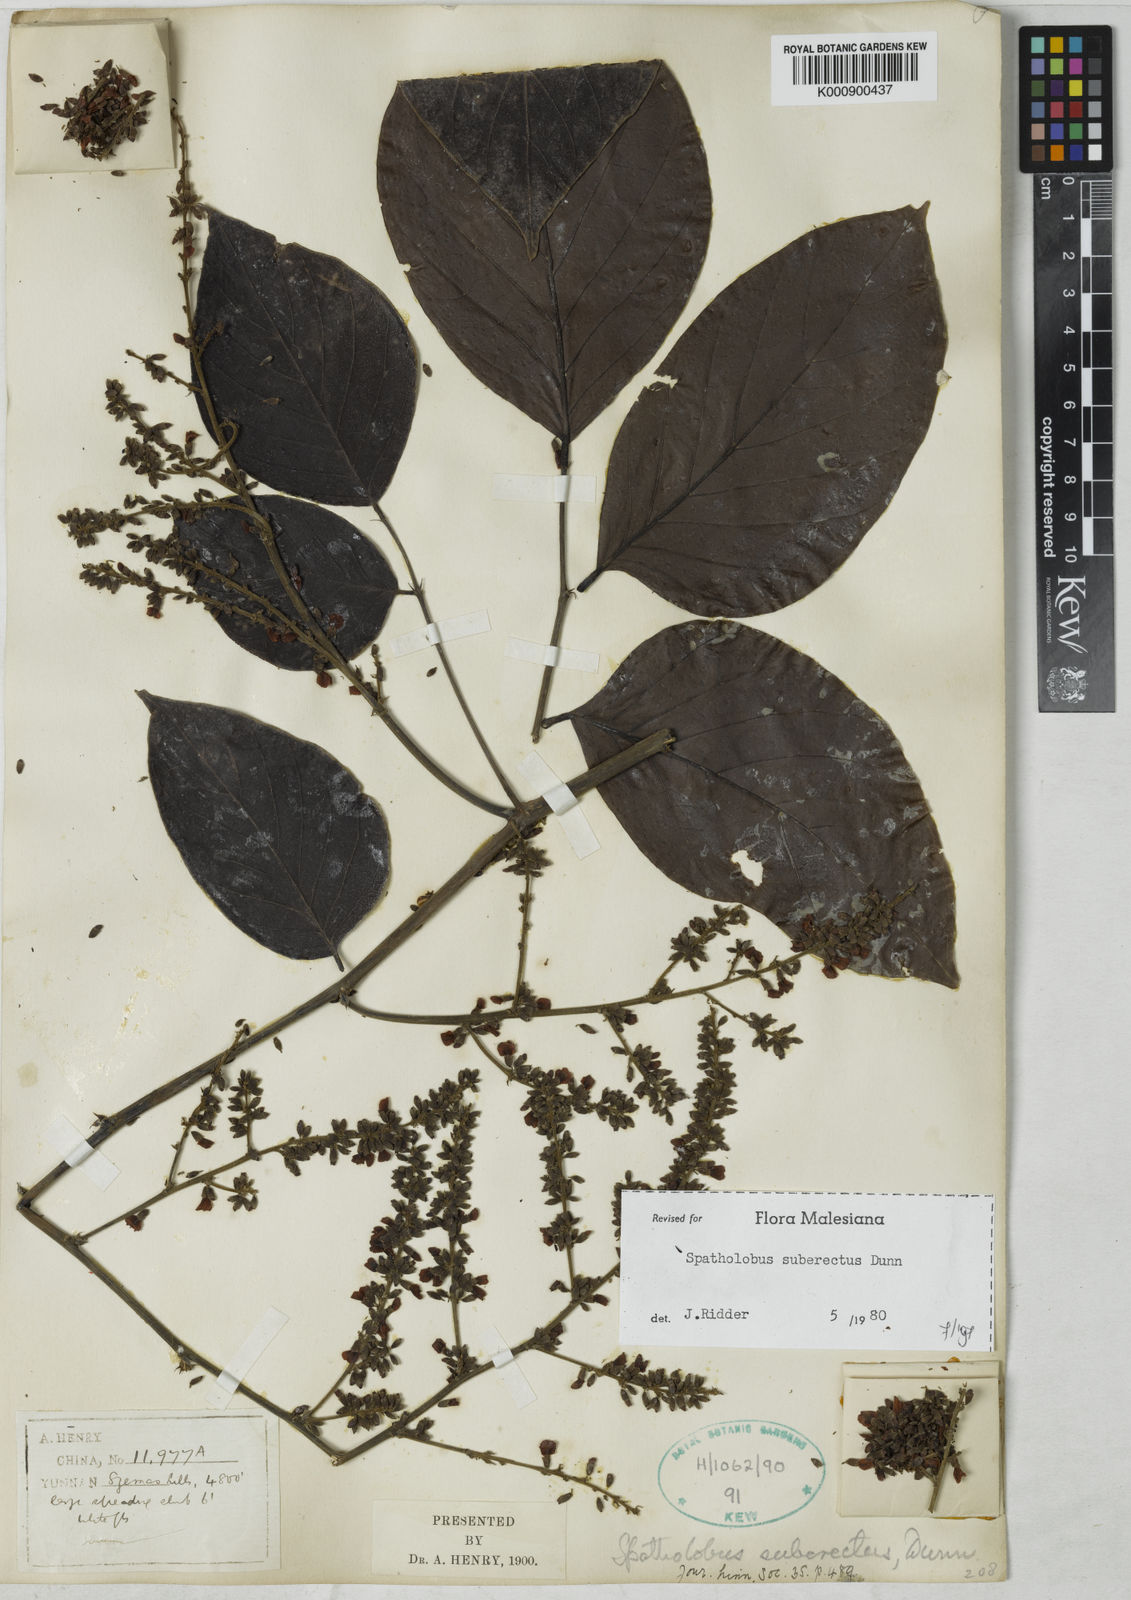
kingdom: Plantae
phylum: Tracheophyta
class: Magnoliopsida
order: Fabales
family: Fabaceae
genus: Spatholobus
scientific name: Spatholobus suberectus
